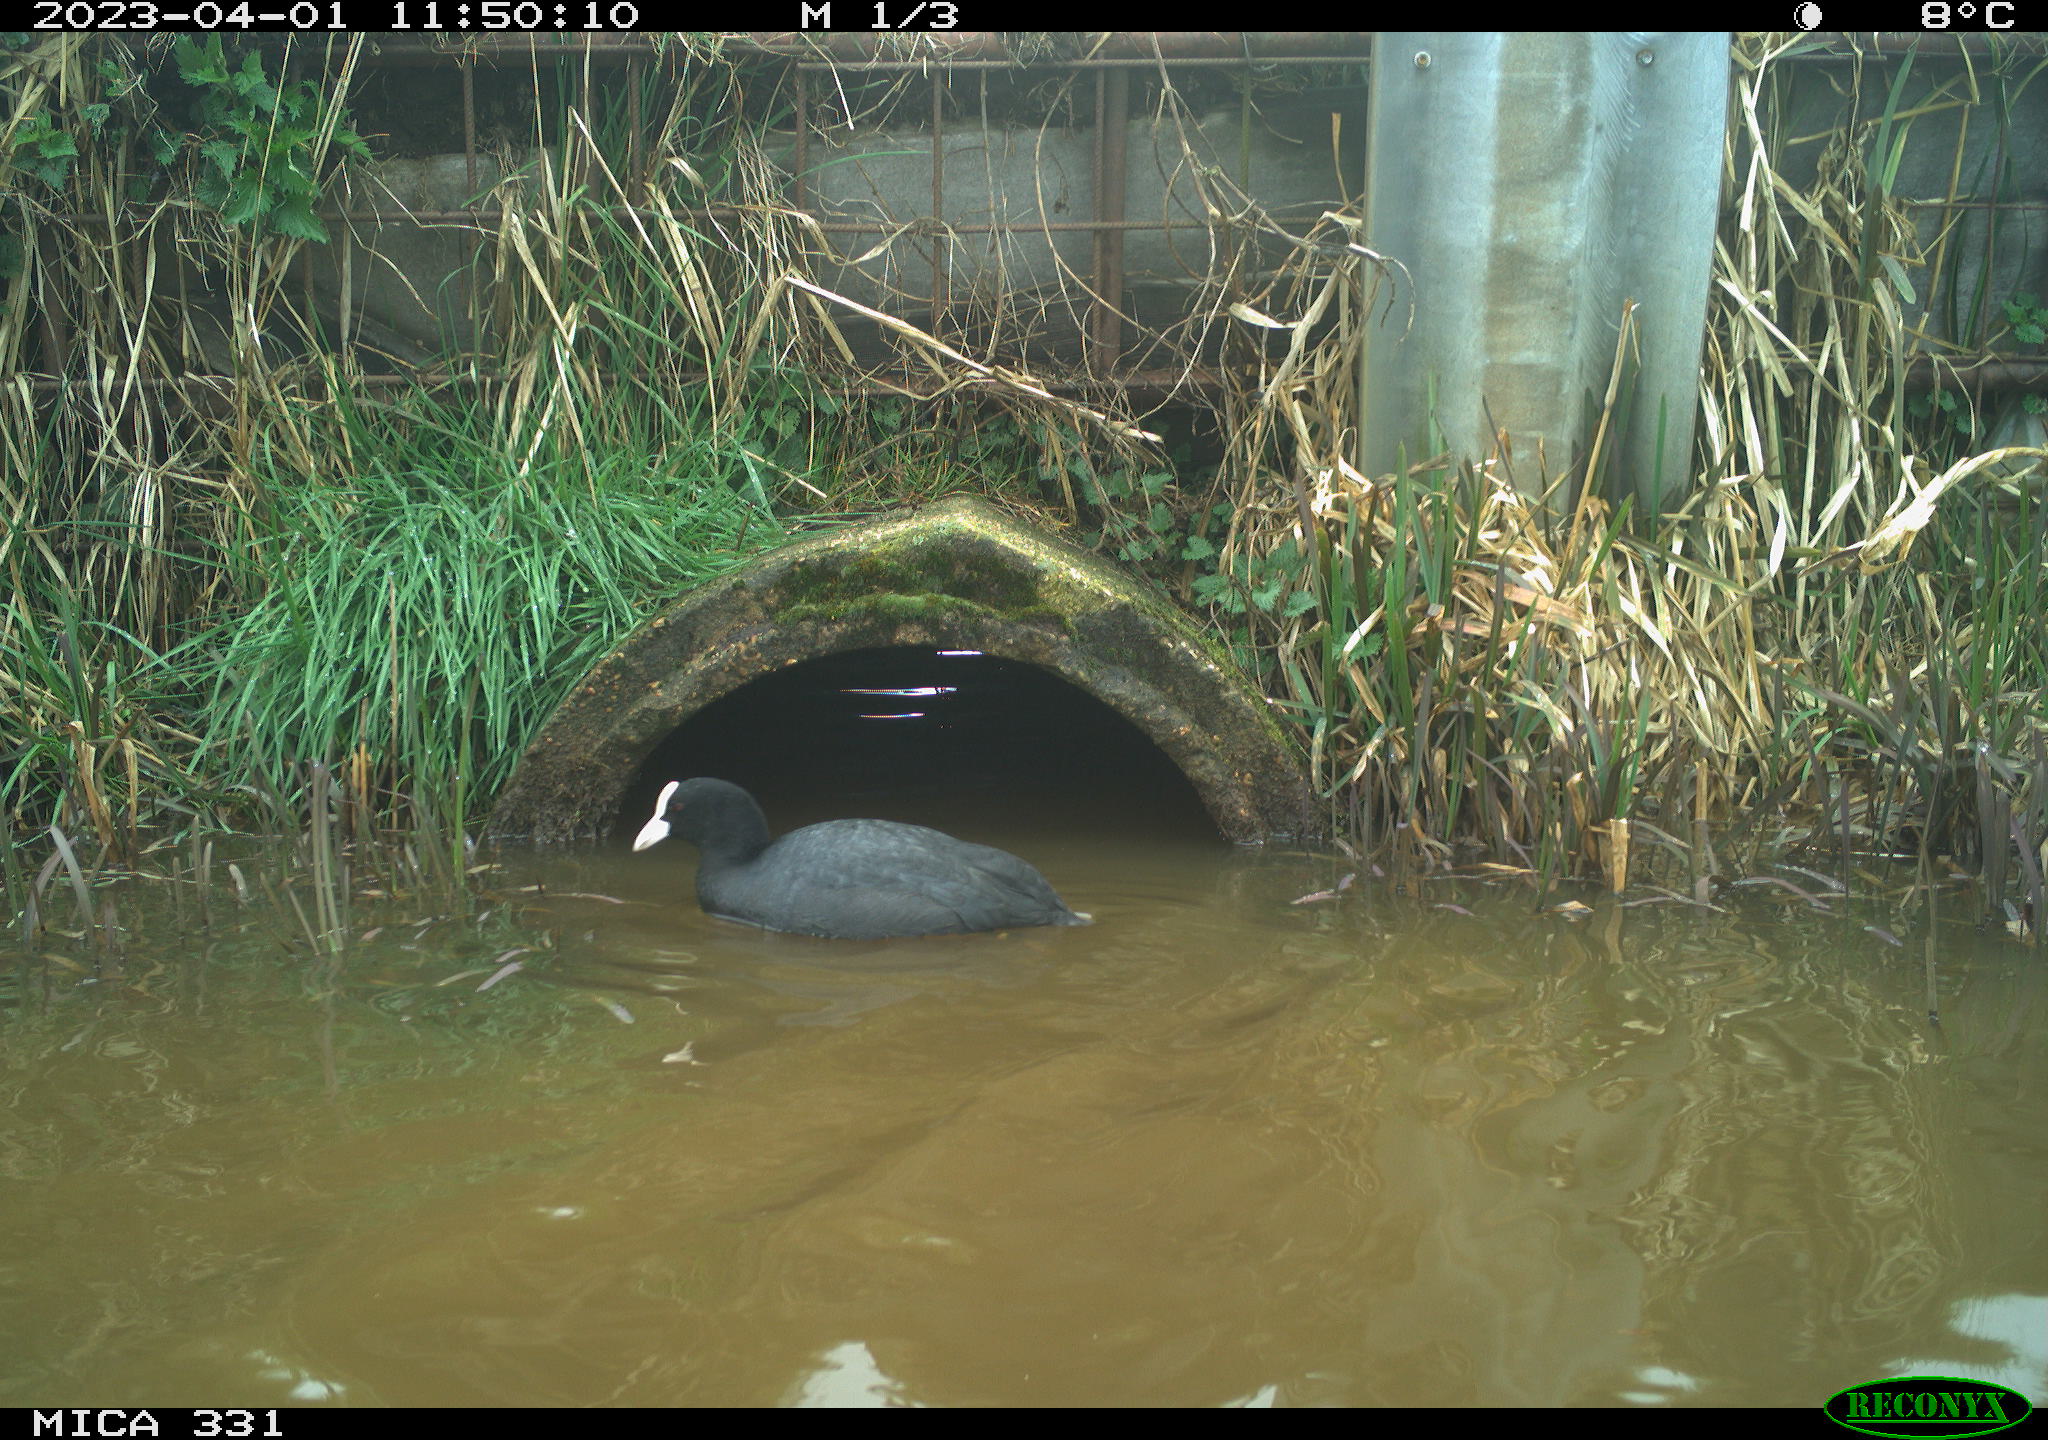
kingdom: Animalia
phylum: Chordata
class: Aves
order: Gruiformes
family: Rallidae
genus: Fulica
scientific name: Fulica atra
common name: Eurasian coot
